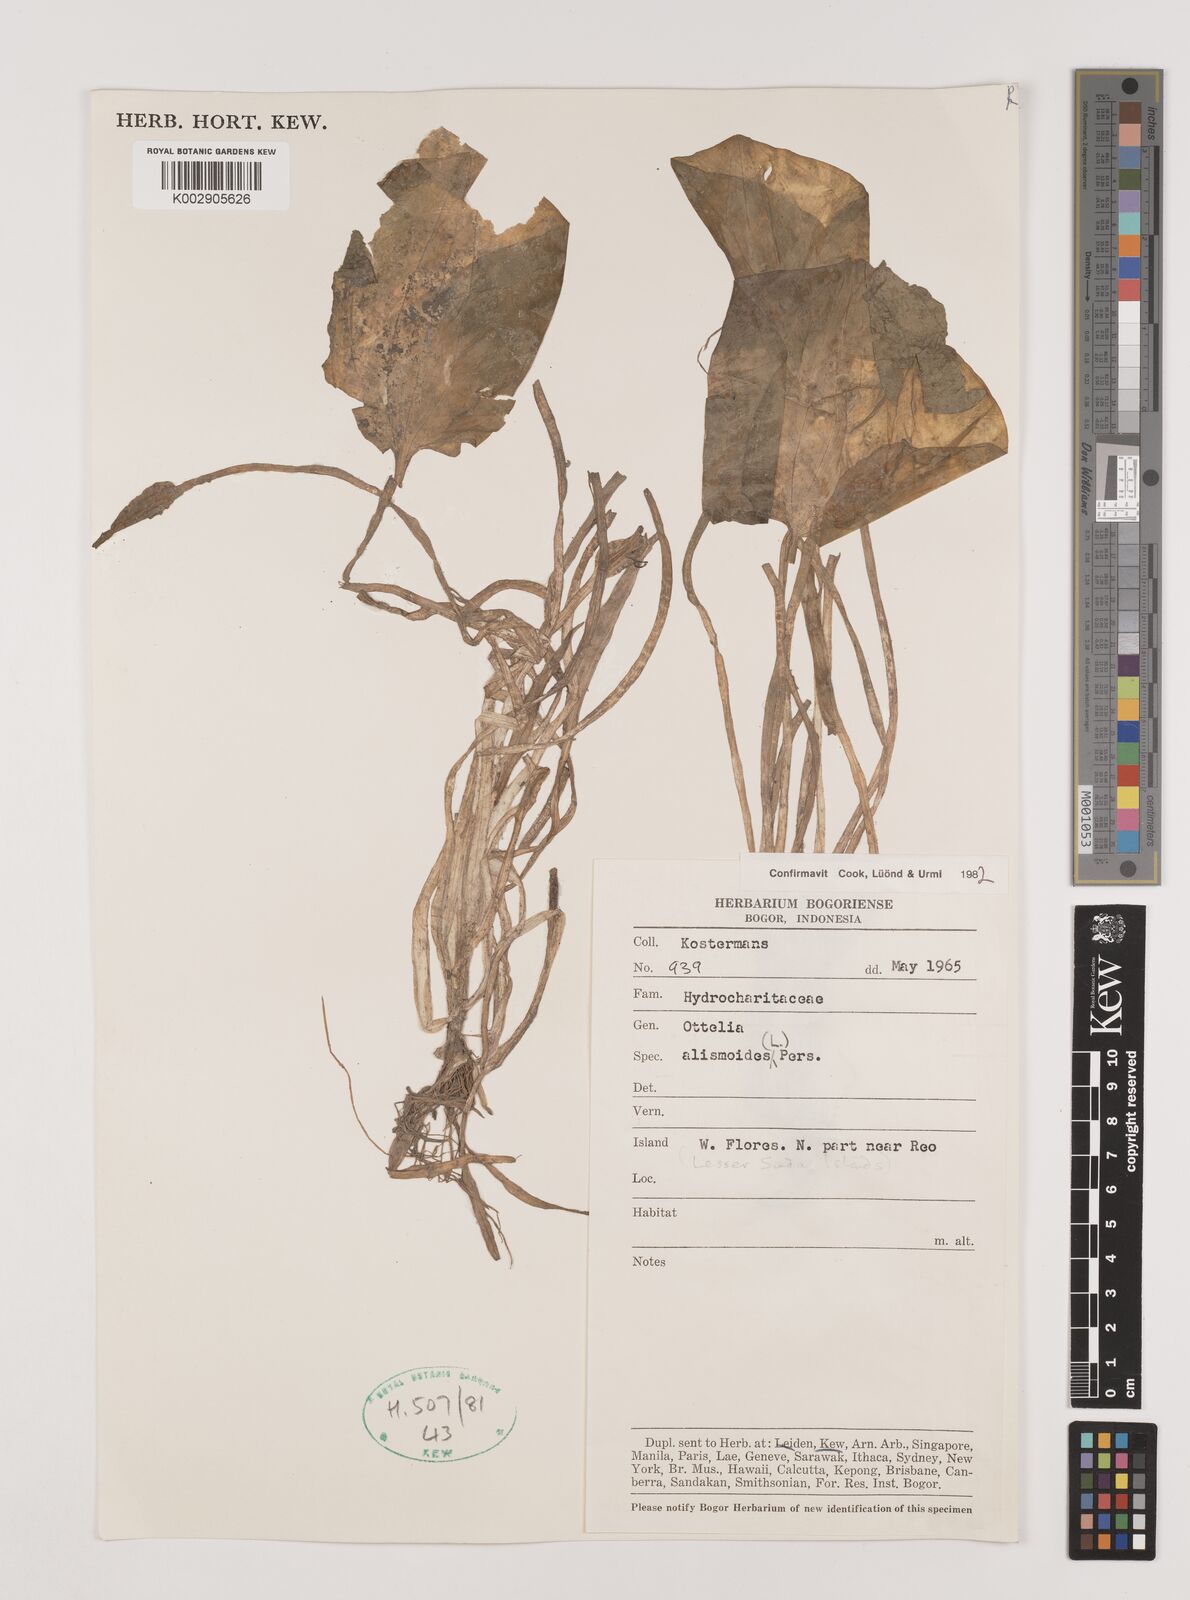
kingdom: Plantae
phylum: Tracheophyta
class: Liliopsida
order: Alismatales
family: Hydrocharitaceae
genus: Ottelia
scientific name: Ottelia alismoides
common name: Duck-lettuce
